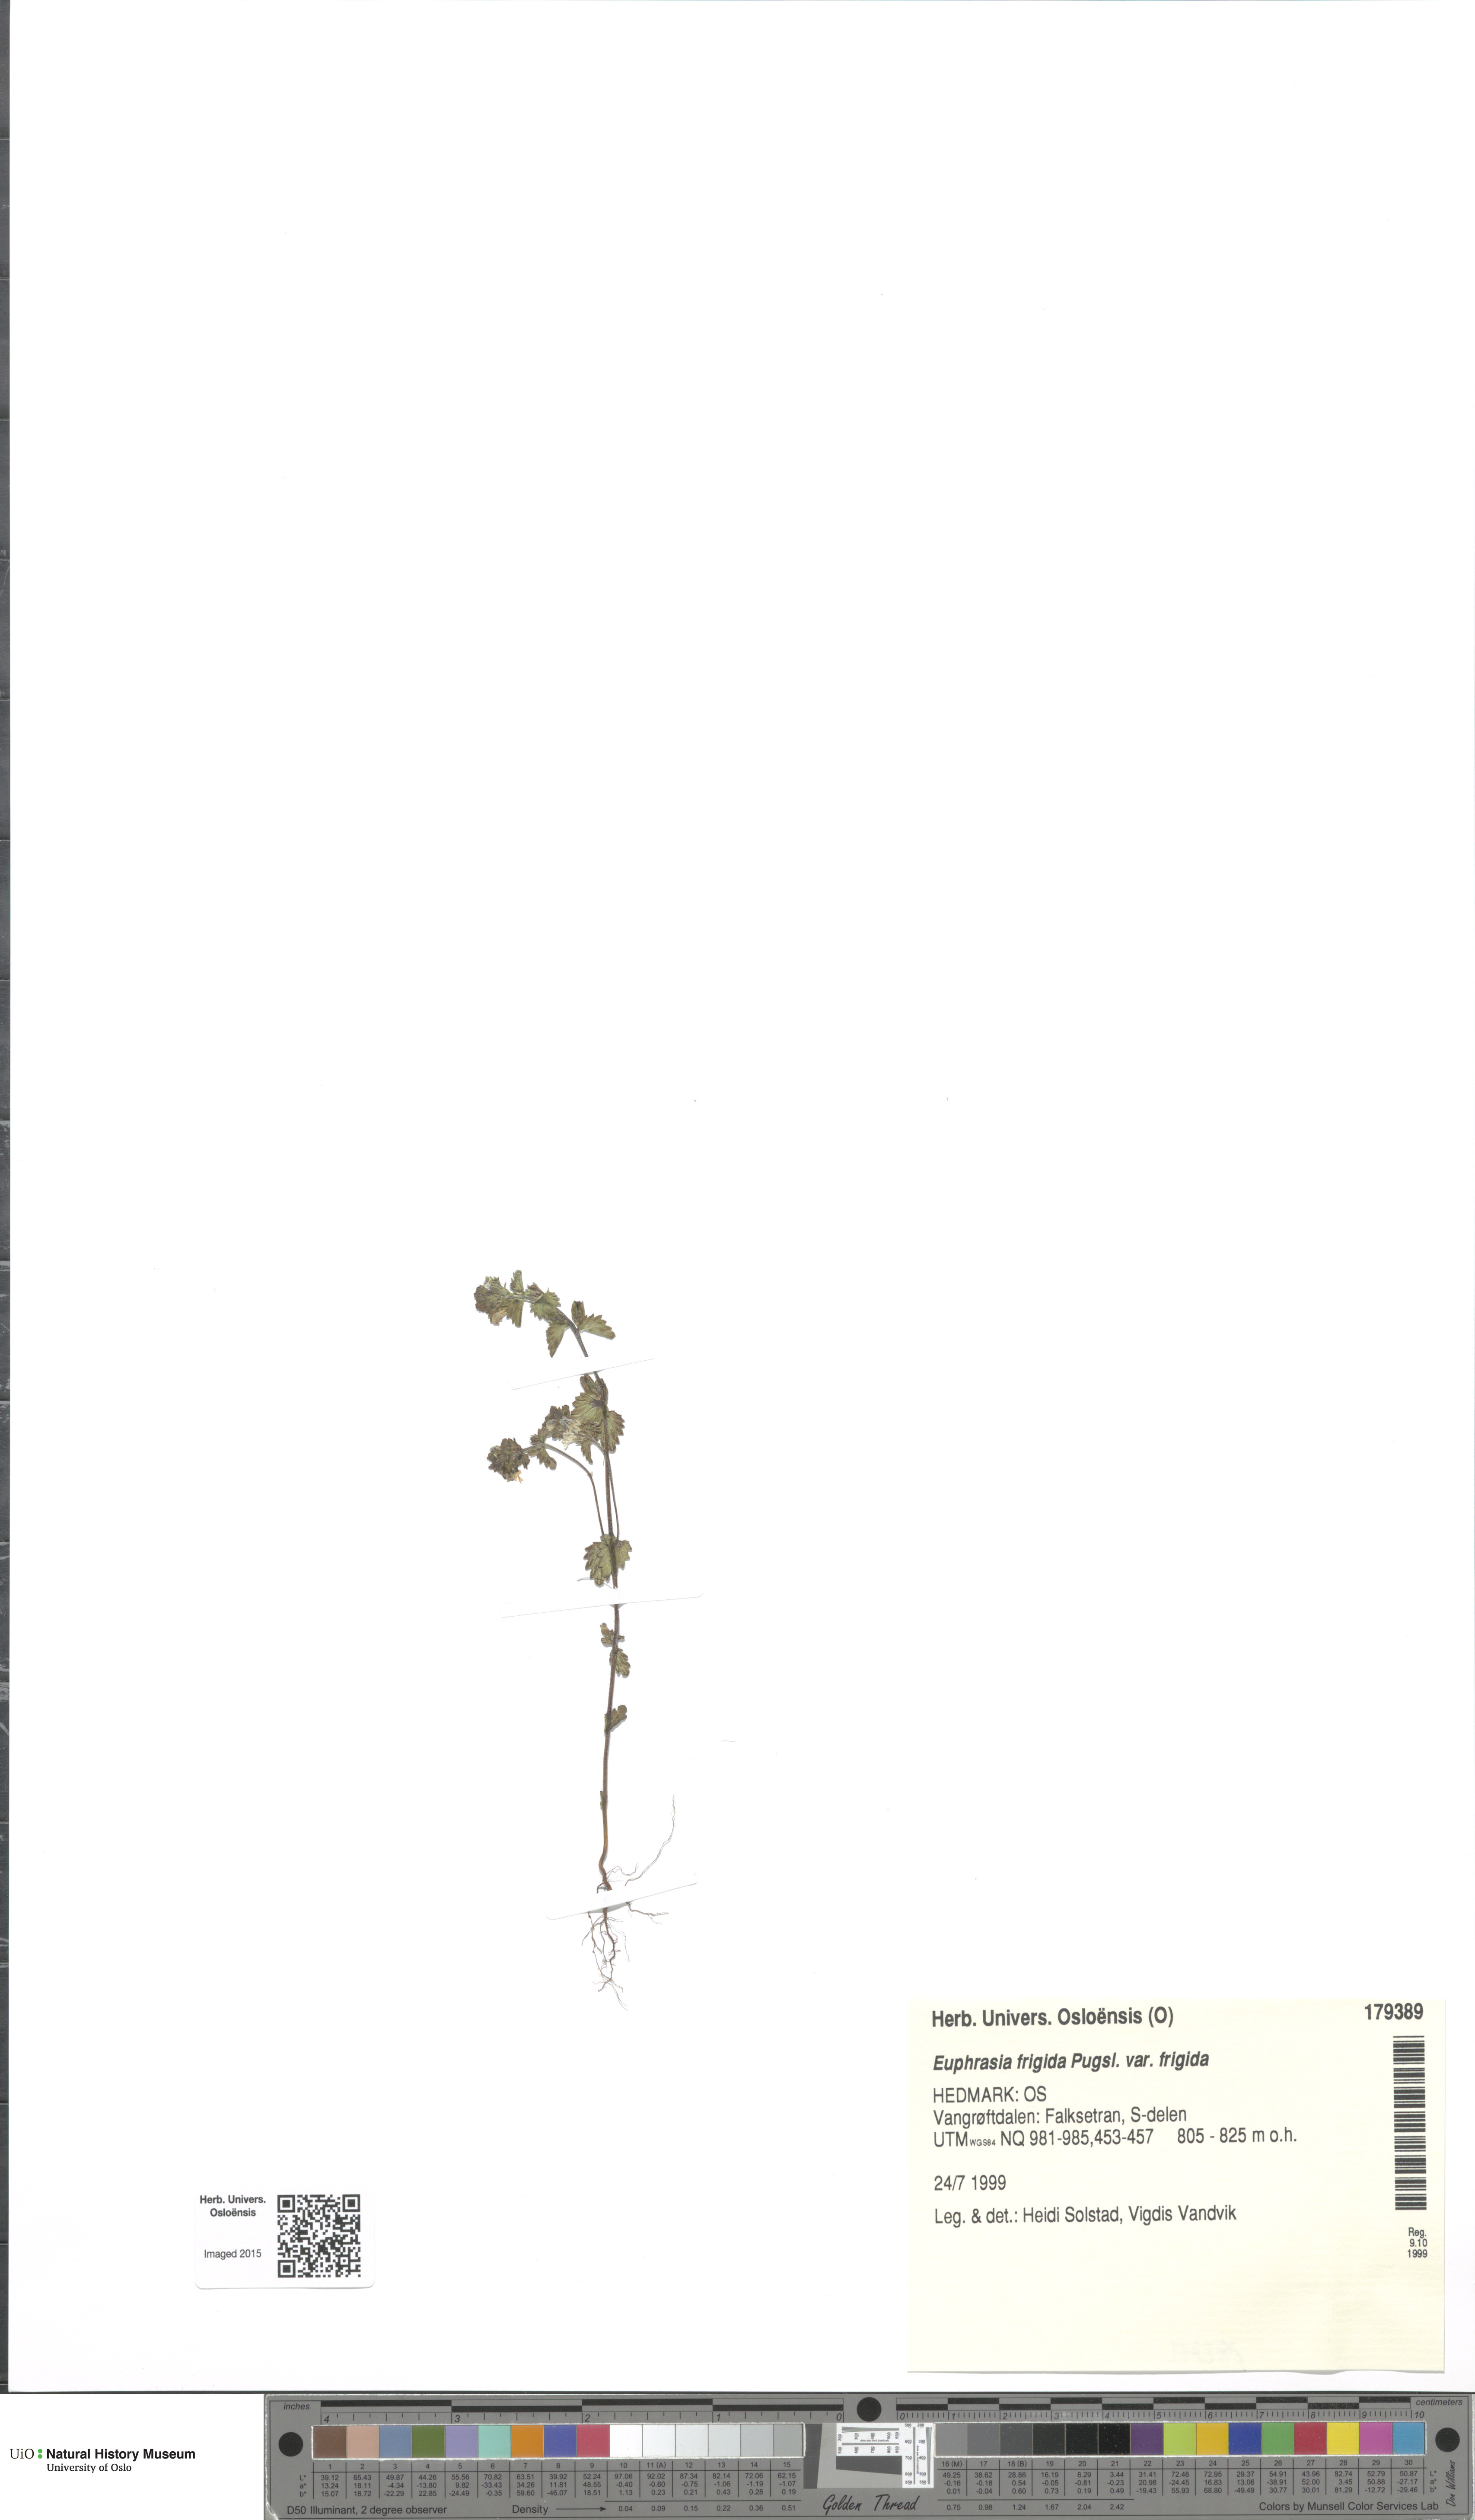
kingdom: Plantae
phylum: Tracheophyta
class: Magnoliopsida
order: Lamiales
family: Orobanchaceae
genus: Euphrasia
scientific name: Euphrasia wettsteinii
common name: Wettstein's eyebright
